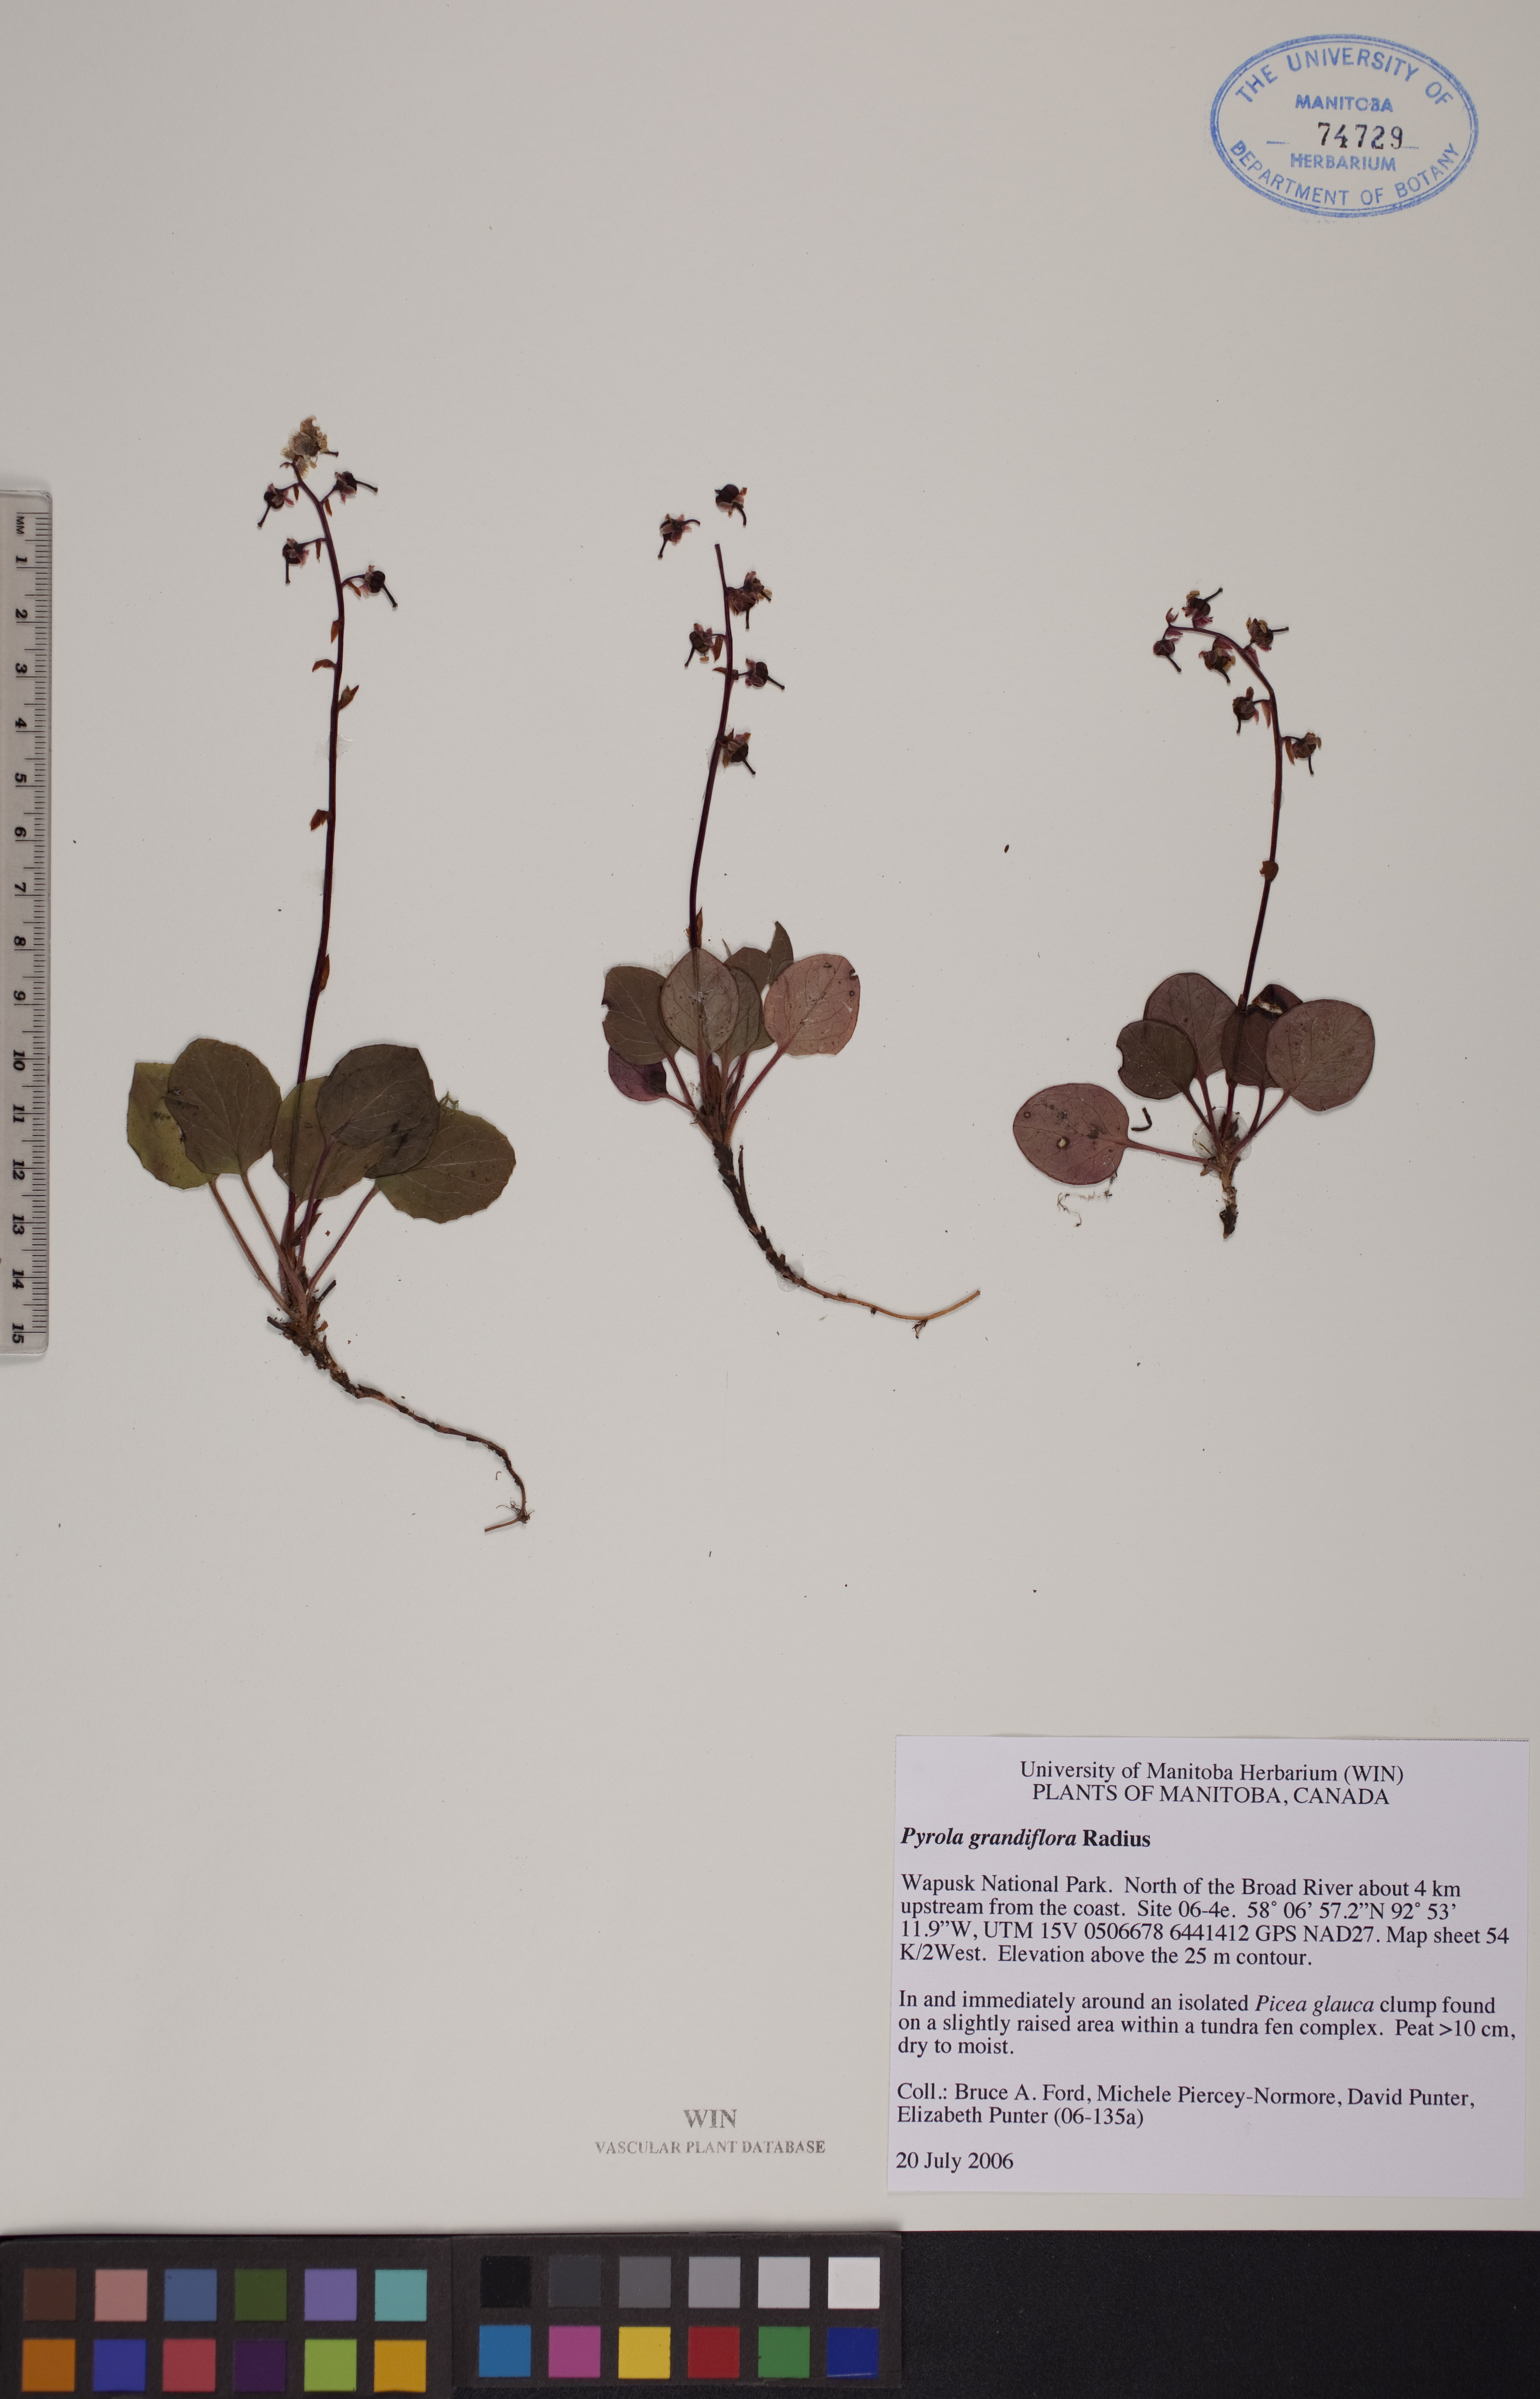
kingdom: Plantae
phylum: Tracheophyta
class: Magnoliopsida
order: Ericales
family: Ericaceae
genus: Pyrola
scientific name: Pyrola grandiflora
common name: Arctic pyrola
